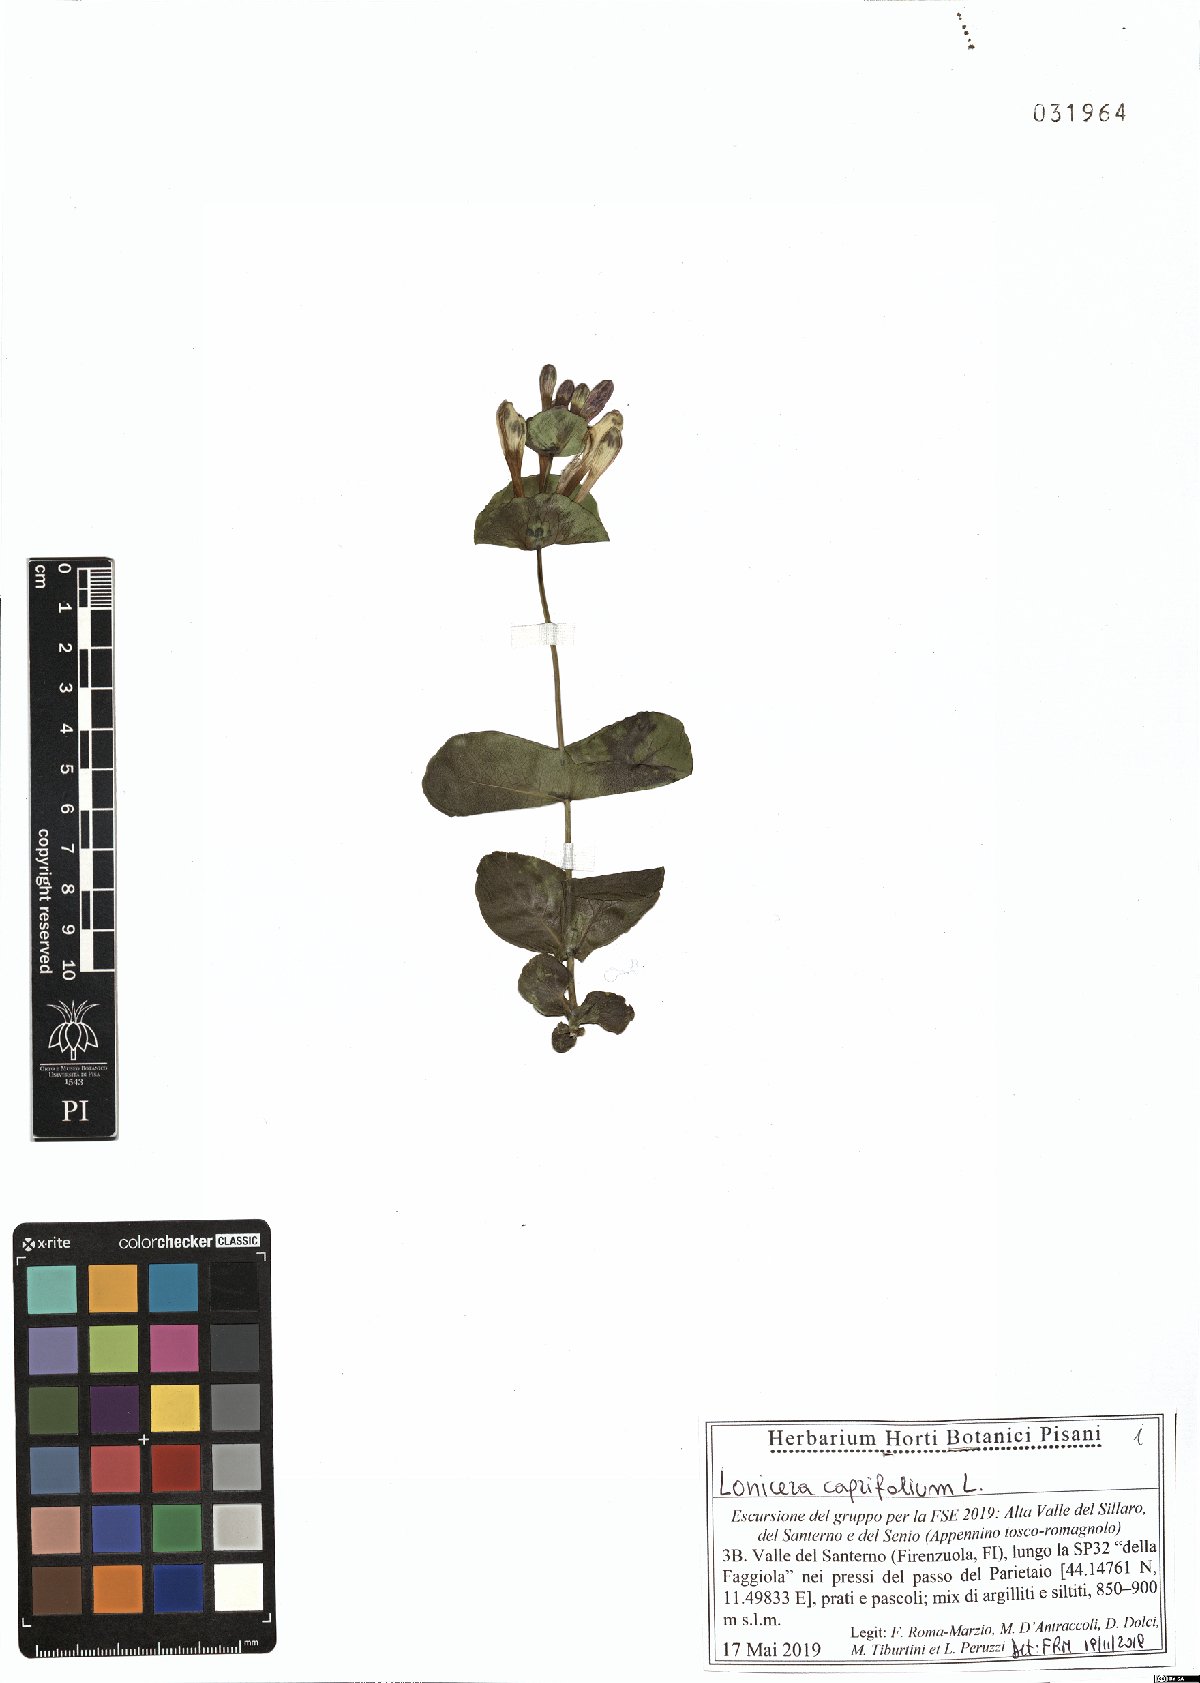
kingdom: Plantae
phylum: Tracheophyta
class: Magnoliopsida
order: Dipsacales
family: Caprifoliaceae
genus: Lonicera
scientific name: Lonicera caprifolium
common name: Perfoliate honeysuckle
